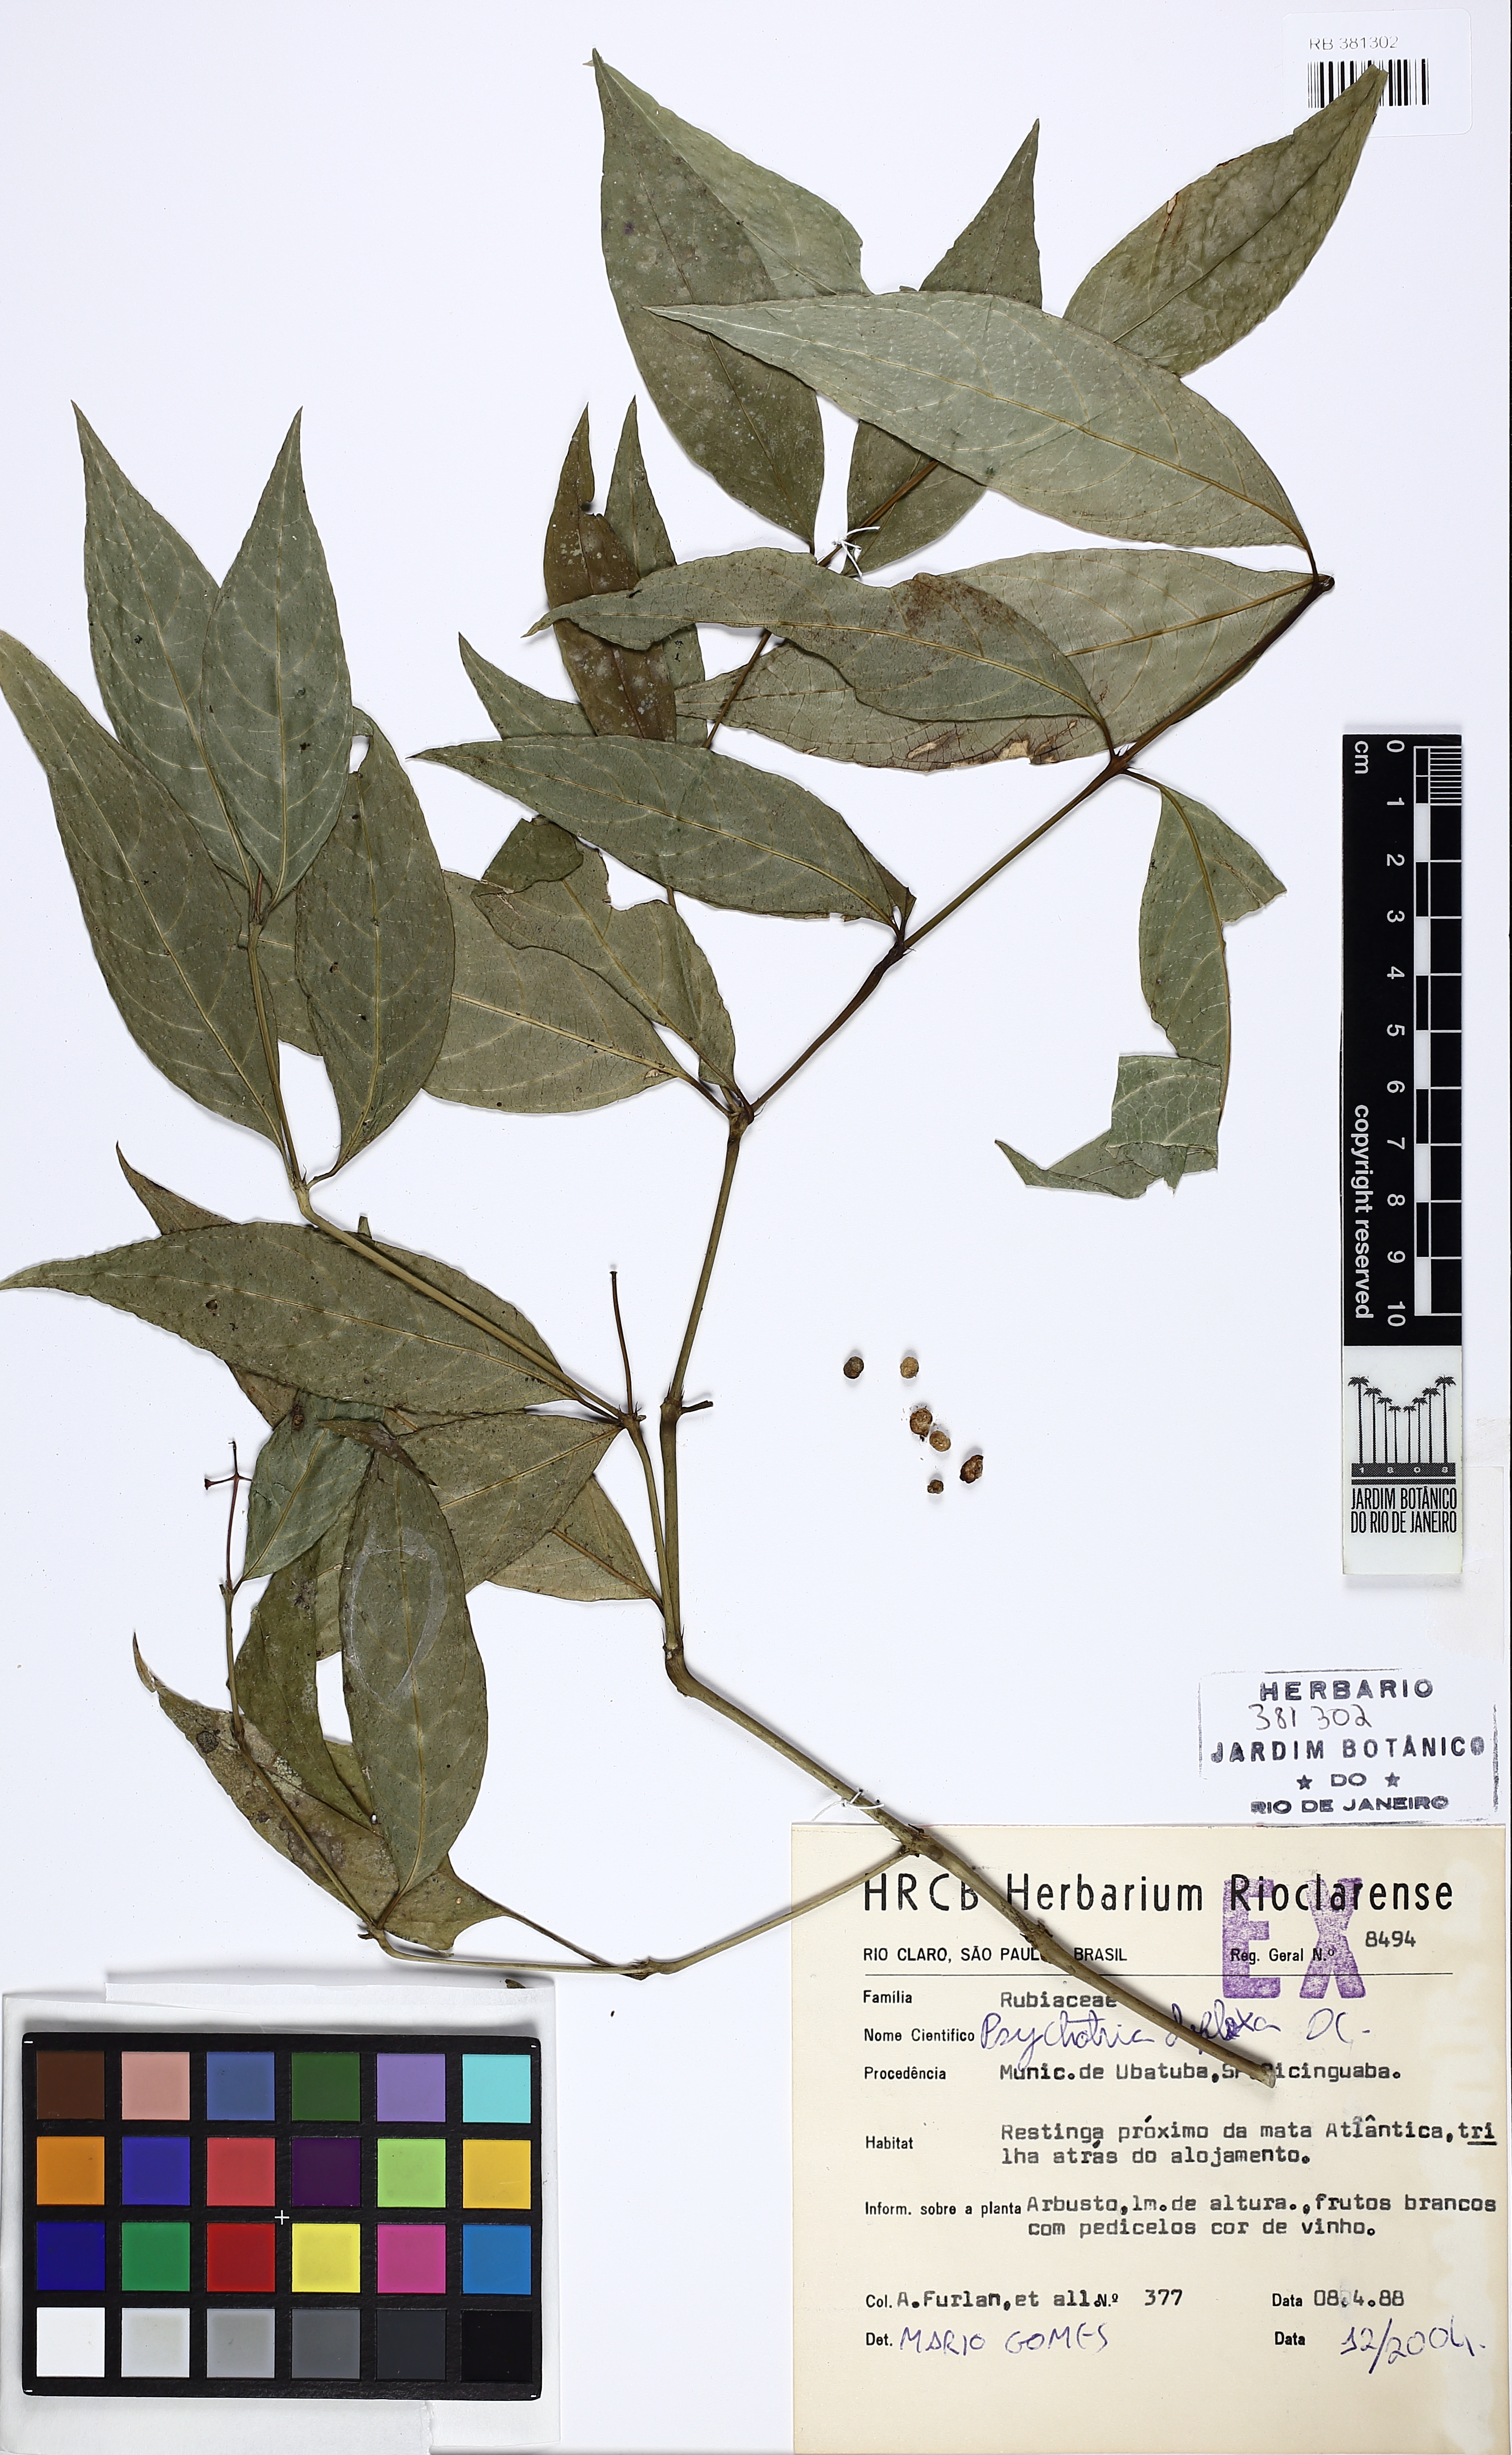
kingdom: Plantae
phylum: Tracheophyta
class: Magnoliopsida
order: Gentianales
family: Rubiaceae
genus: Palicourea
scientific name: Palicourea deflexa
